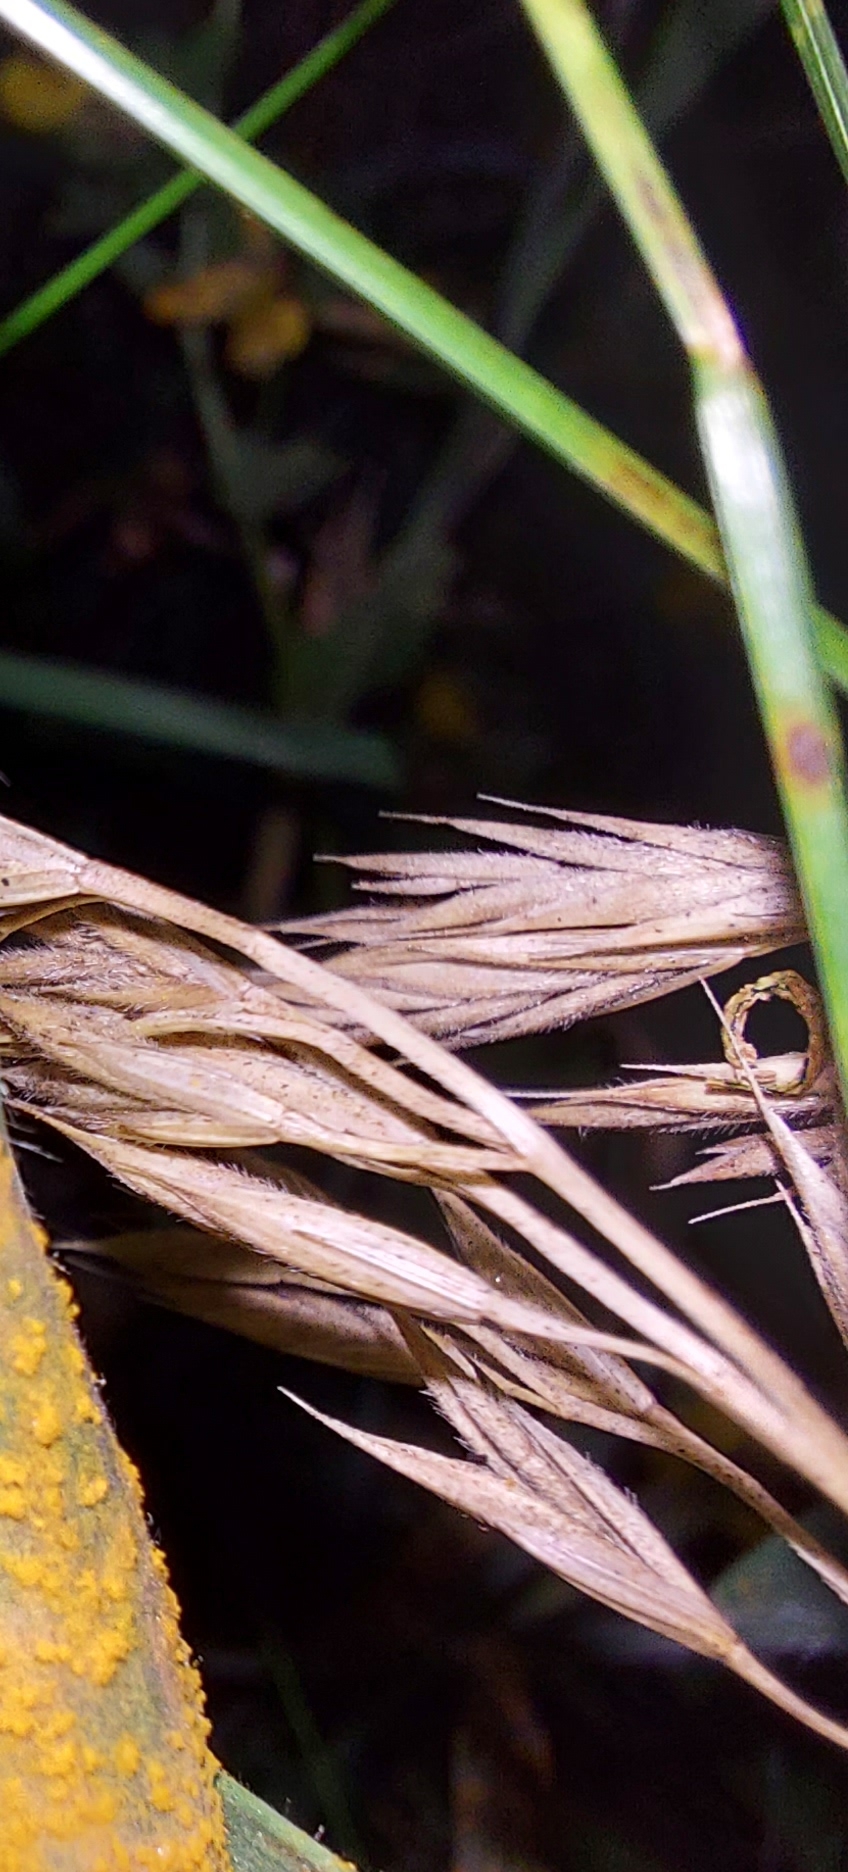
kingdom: Fungi
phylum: Basidiomycota
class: Pucciniomycetes
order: Pucciniales
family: Pucciniaceae
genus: Puccinia
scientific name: Puccinia
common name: tvecellerust
